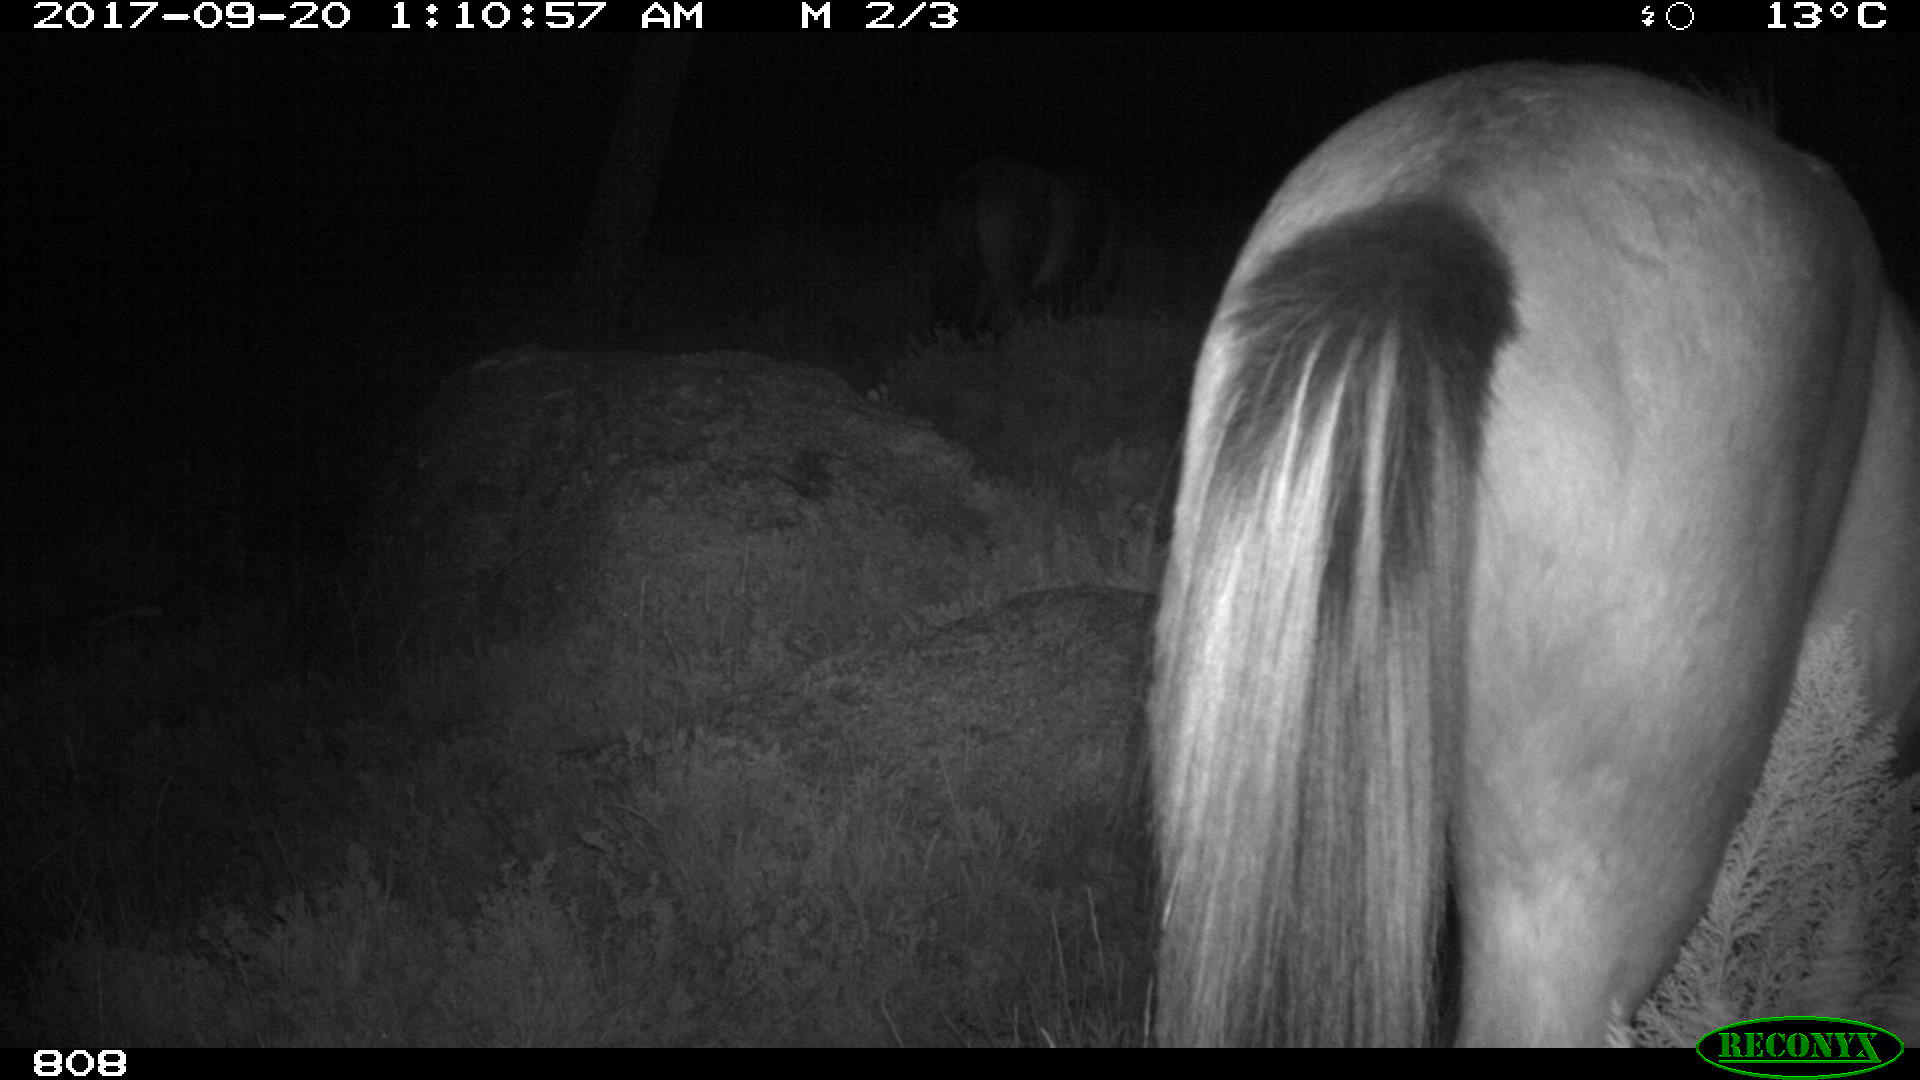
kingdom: Animalia
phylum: Chordata
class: Mammalia
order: Perissodactyla
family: Equidae
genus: Equus
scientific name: Equus caballus
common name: Horse
